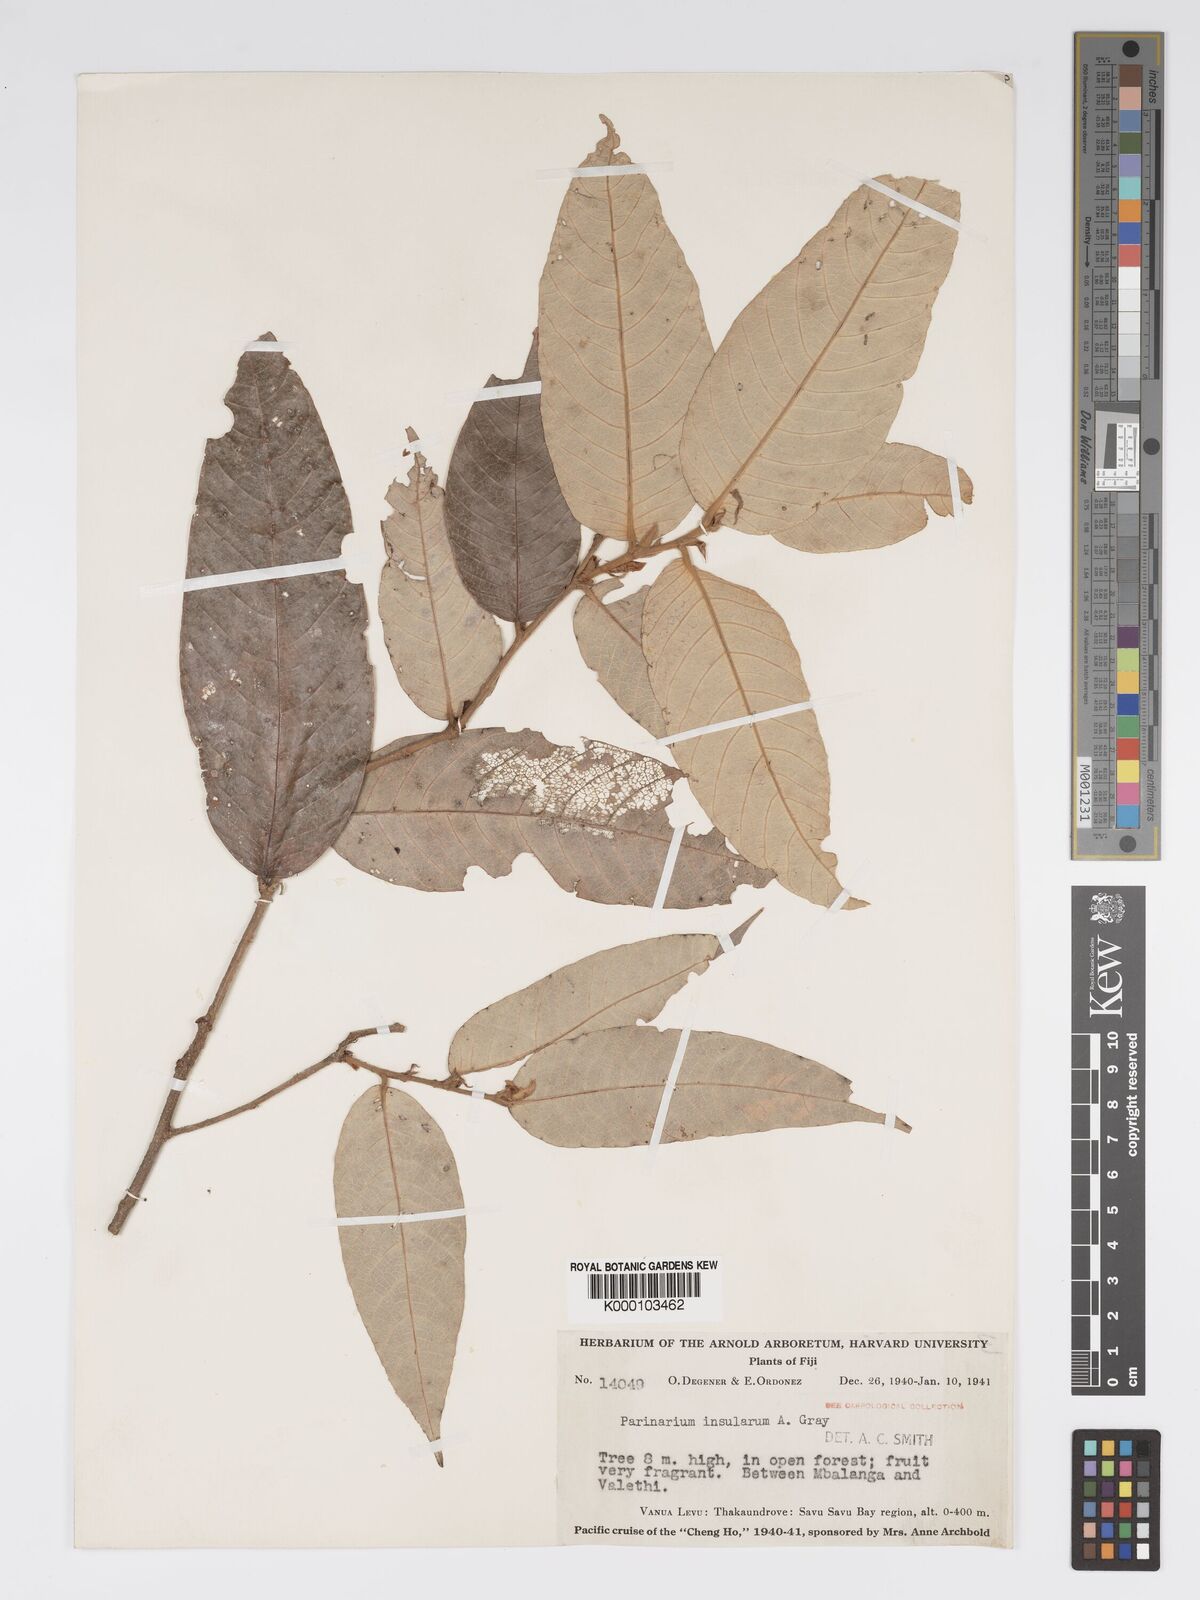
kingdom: Plantae
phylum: Tracheophyta
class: Magnoliopsida
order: Malpighiales
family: Chrysobalanaceae
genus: Parinari
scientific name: Parinari insularum
